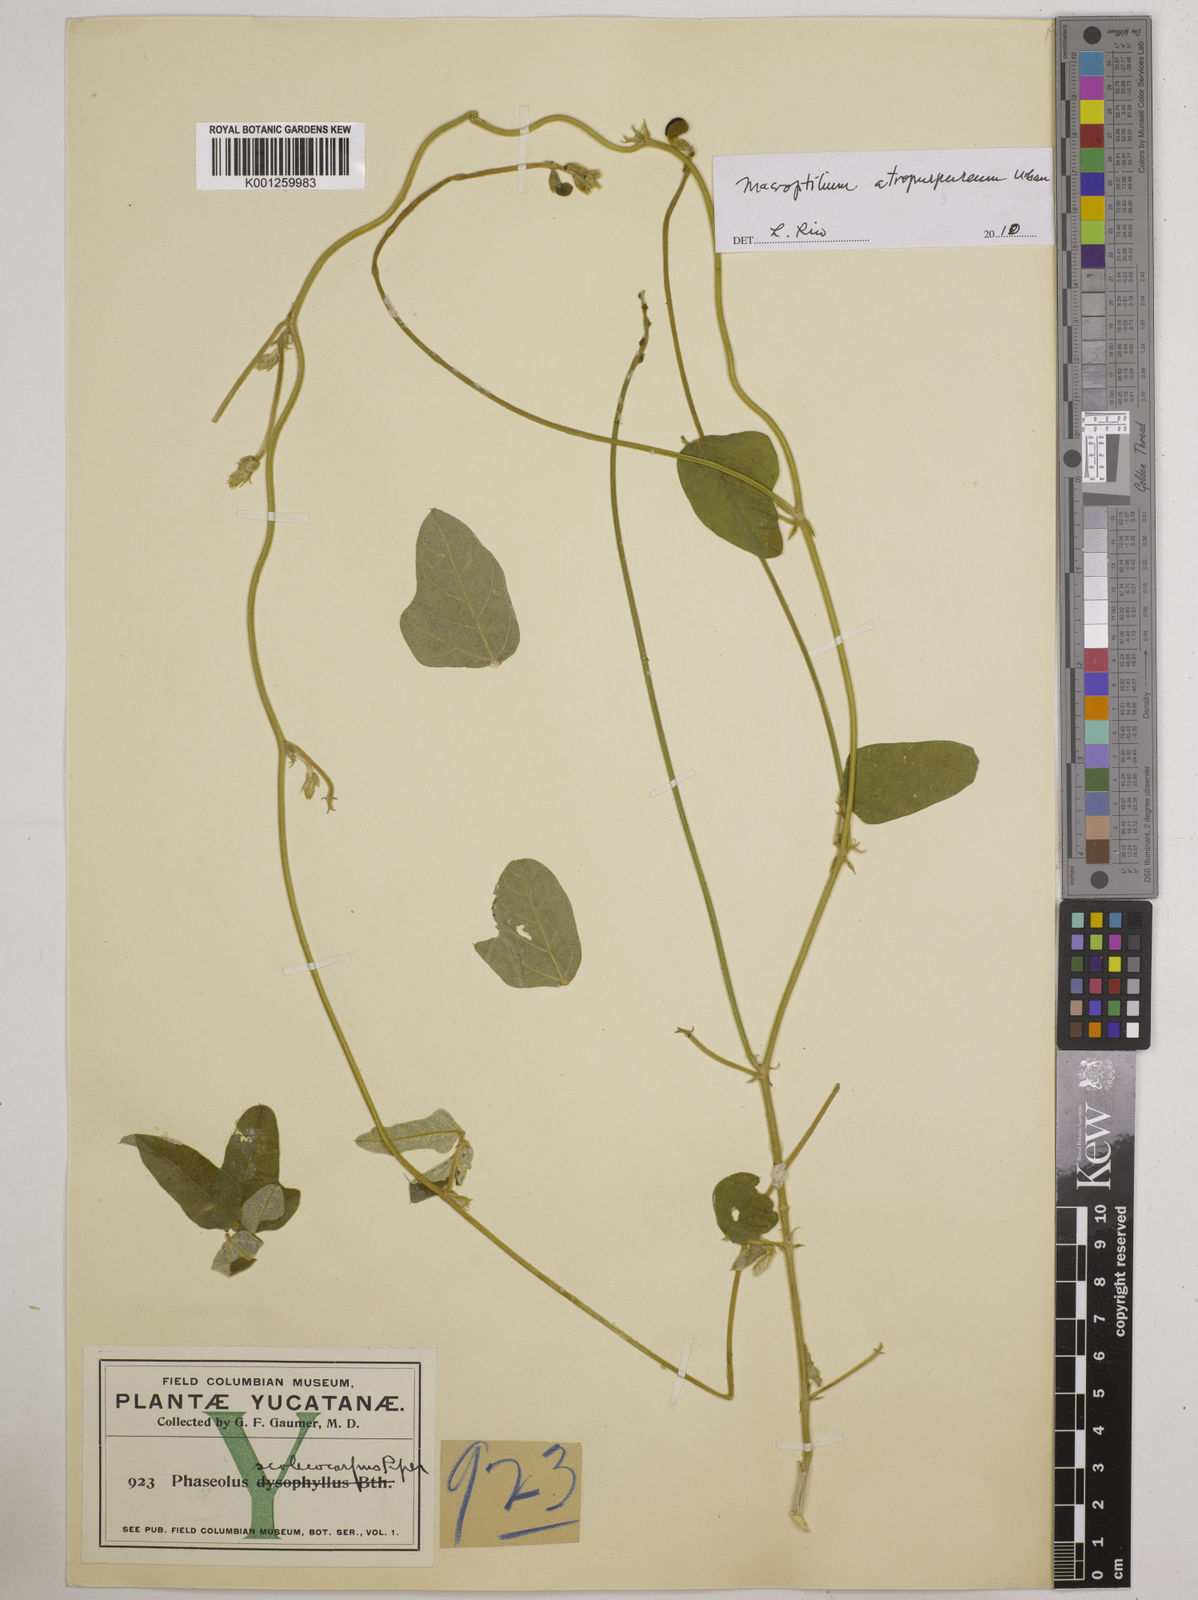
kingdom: Plantae
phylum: Tracheophyta
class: Magnoliopsida
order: Fabales
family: Fabaceae
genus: Macroptilium
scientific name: Macroptilium atropurpureum
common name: Purple bushbean
